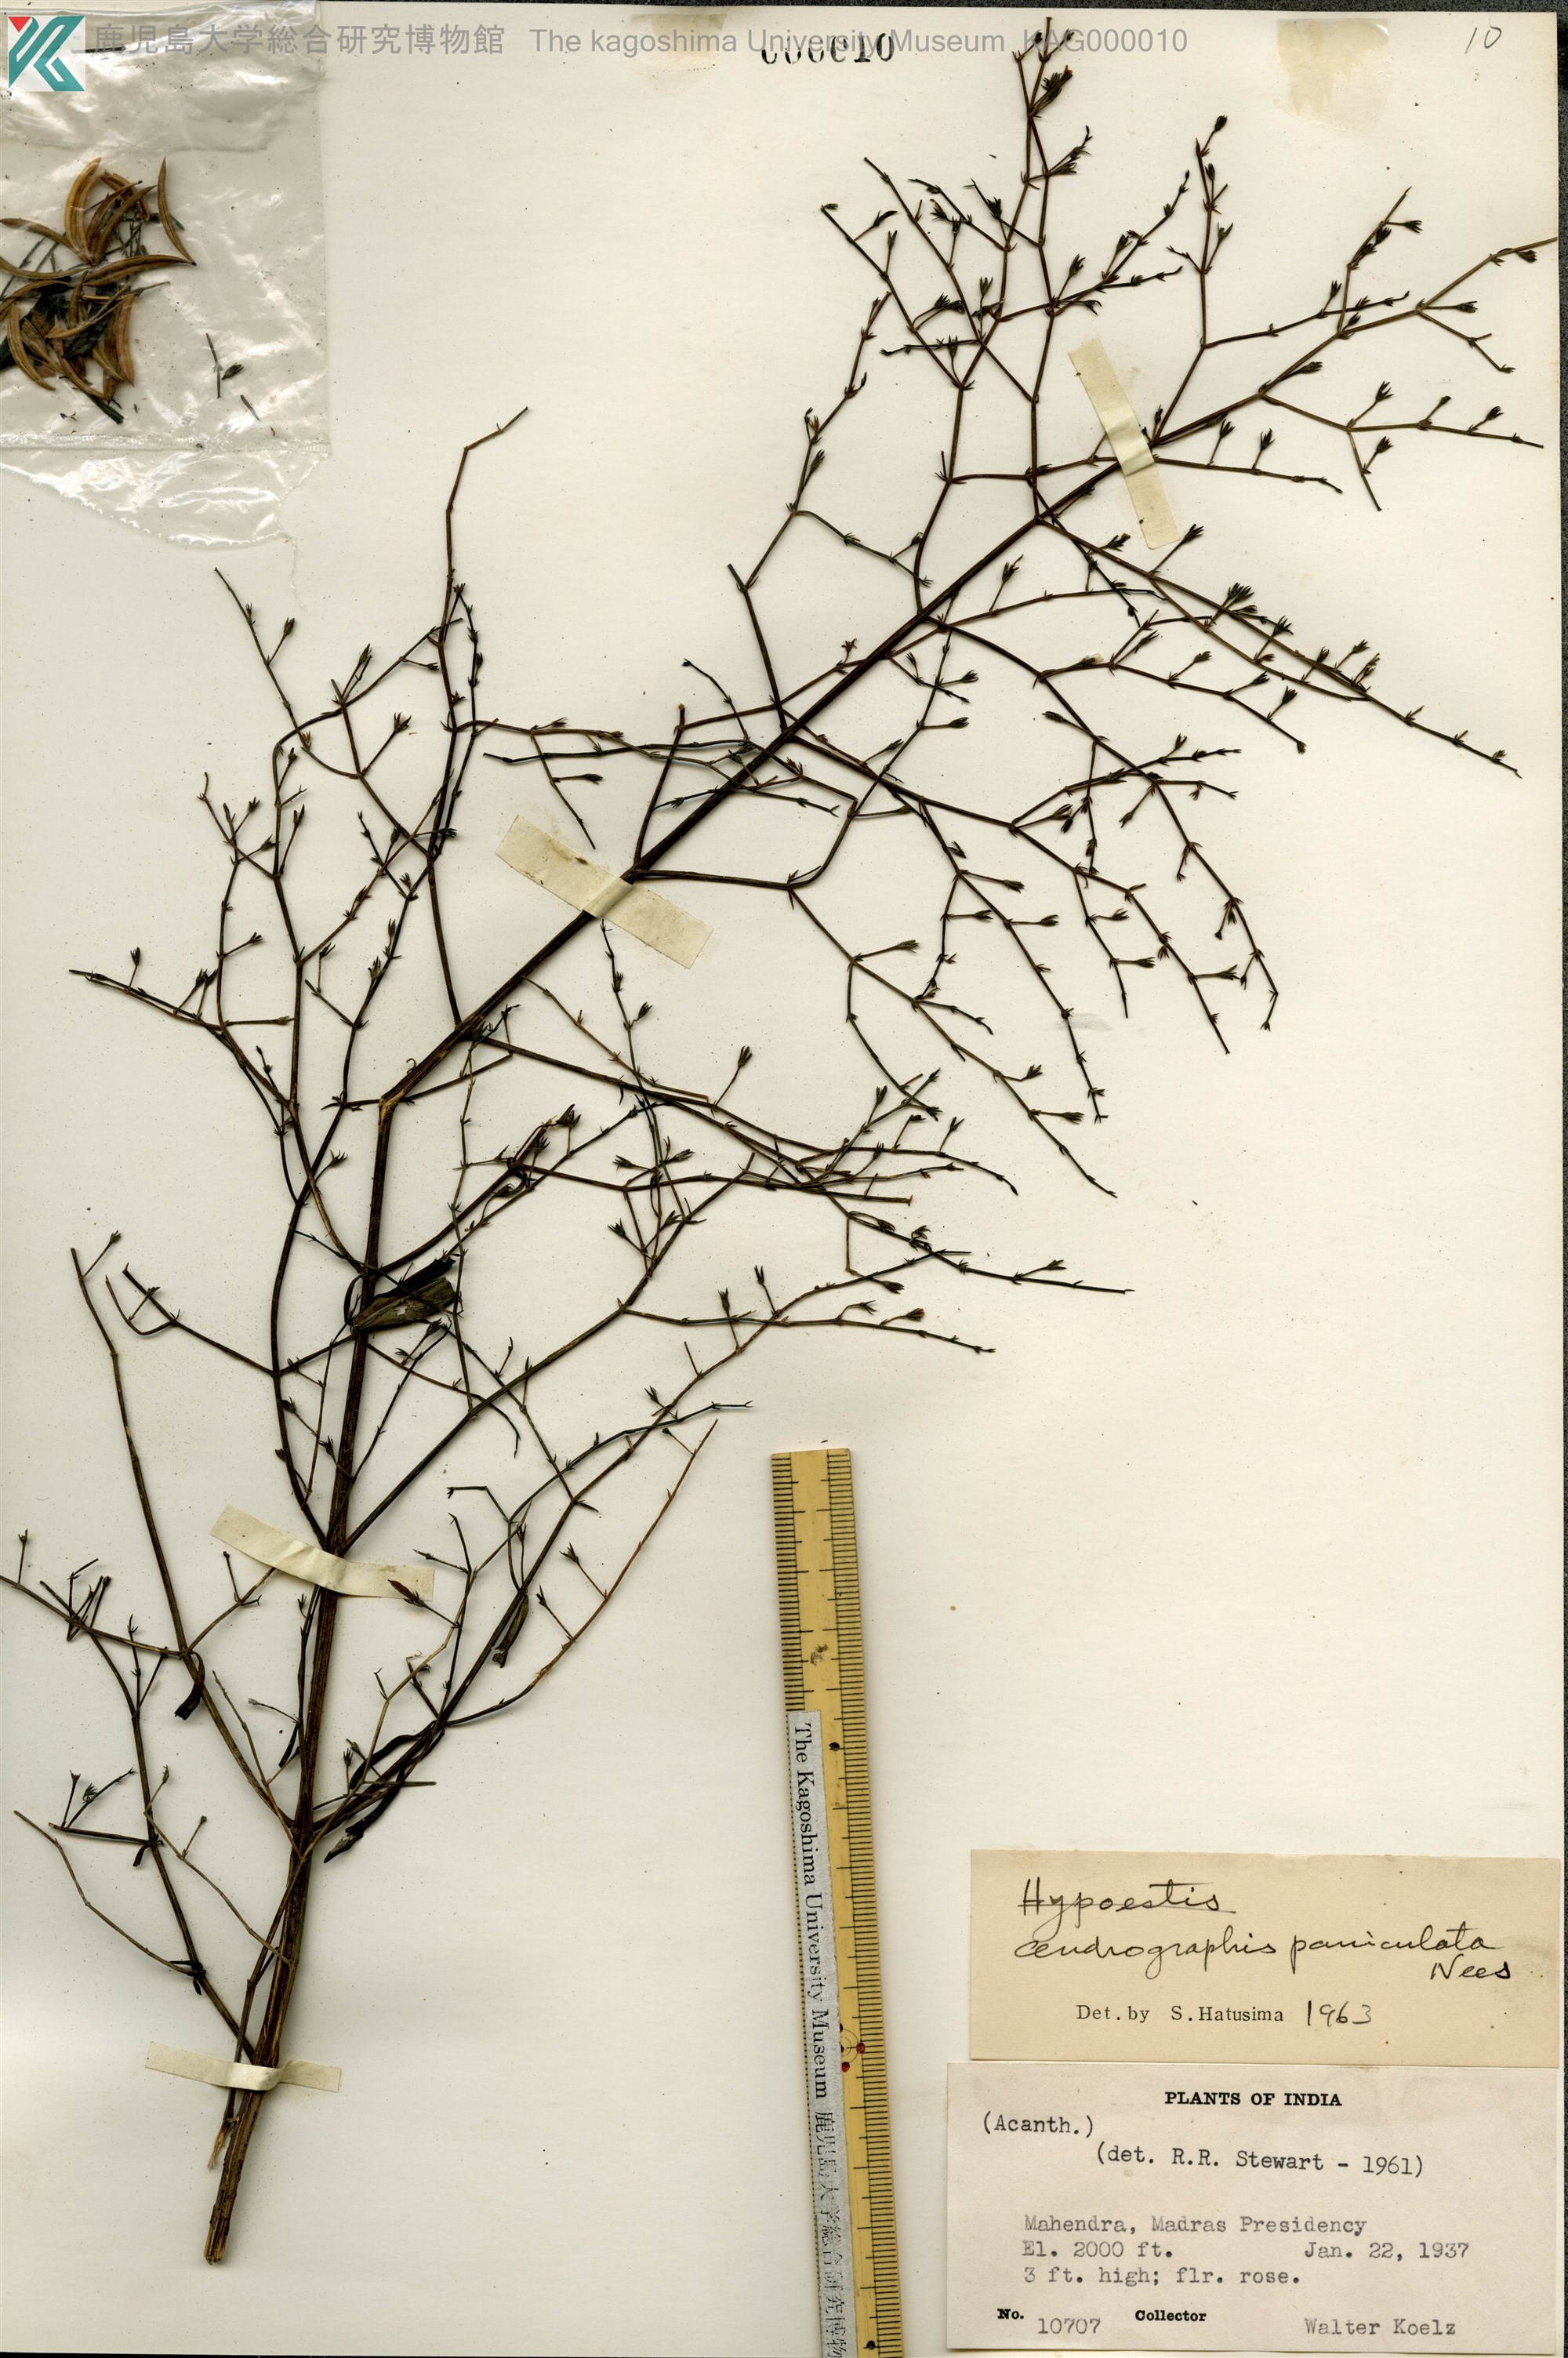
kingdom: Plantae
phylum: Tracheophyta
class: Magnoliopsida
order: Lamiales
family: Acanthaceae
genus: Andrographis
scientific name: Andrographis paniculata
